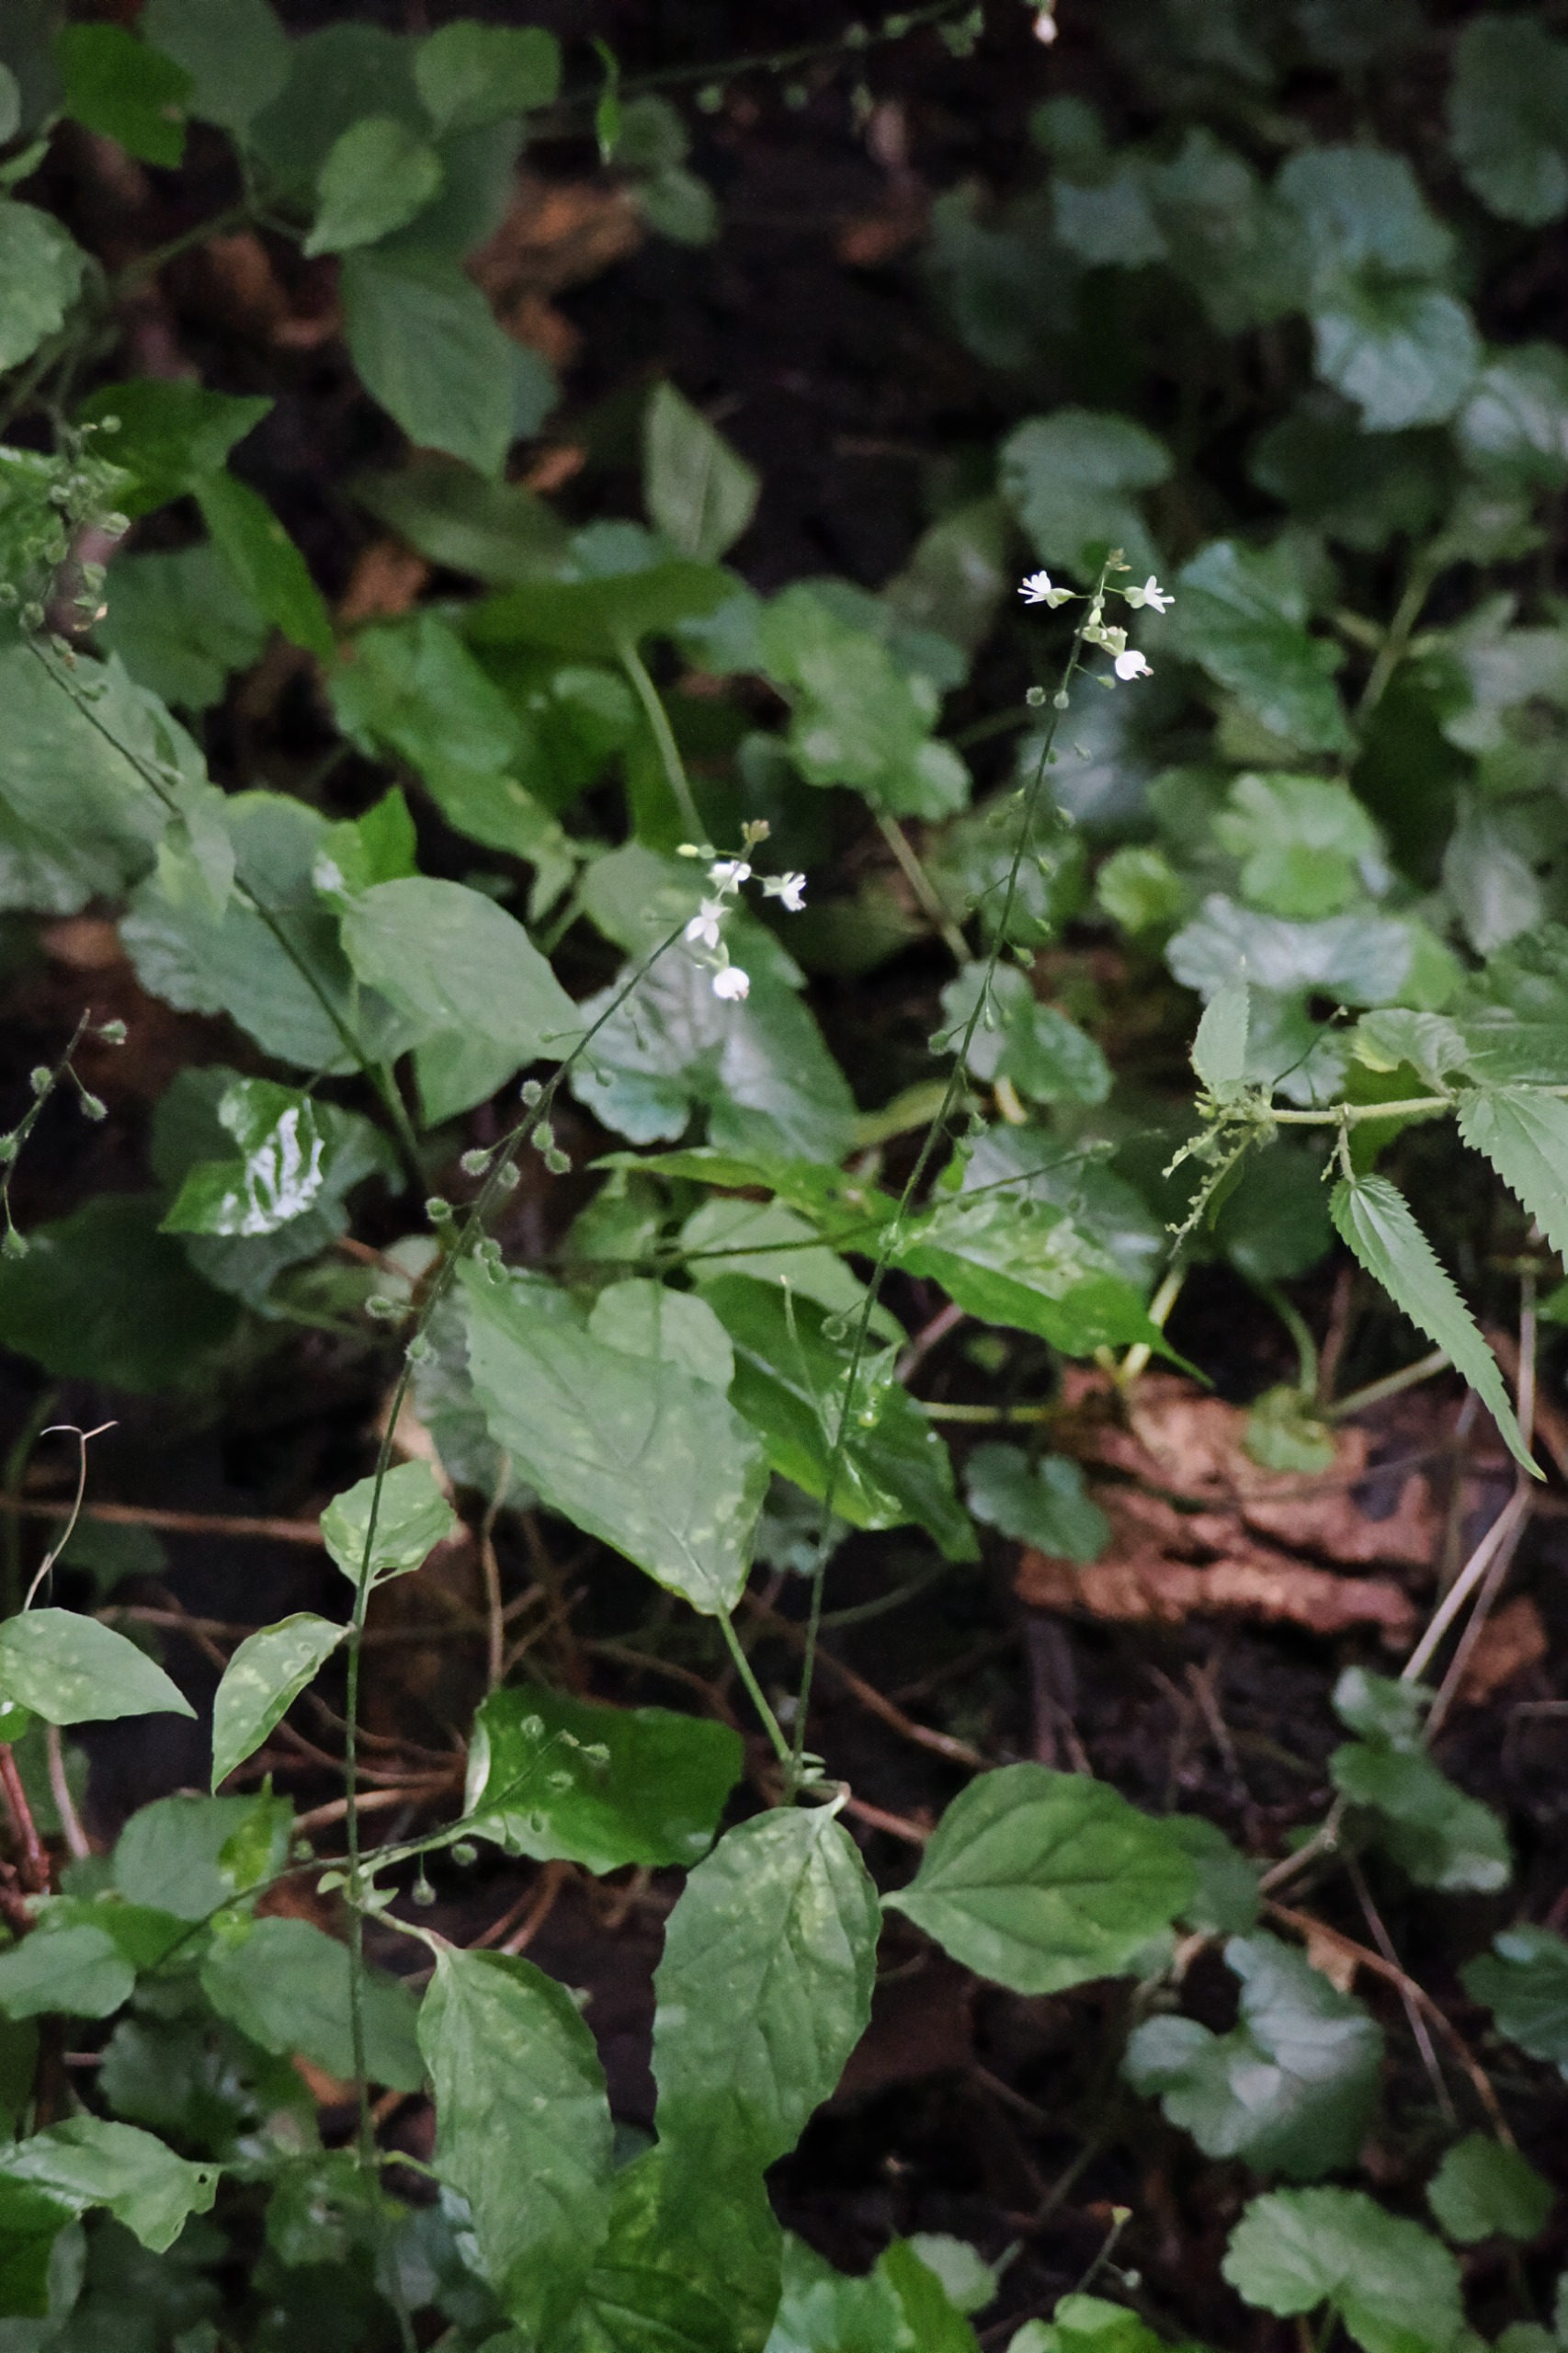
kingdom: Plantae
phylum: Tracheophyta
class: Magnoliopsida
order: Myrtales
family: Onagraceae
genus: Circaea
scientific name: Circaea lutetiana
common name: Dunet steffensurt
